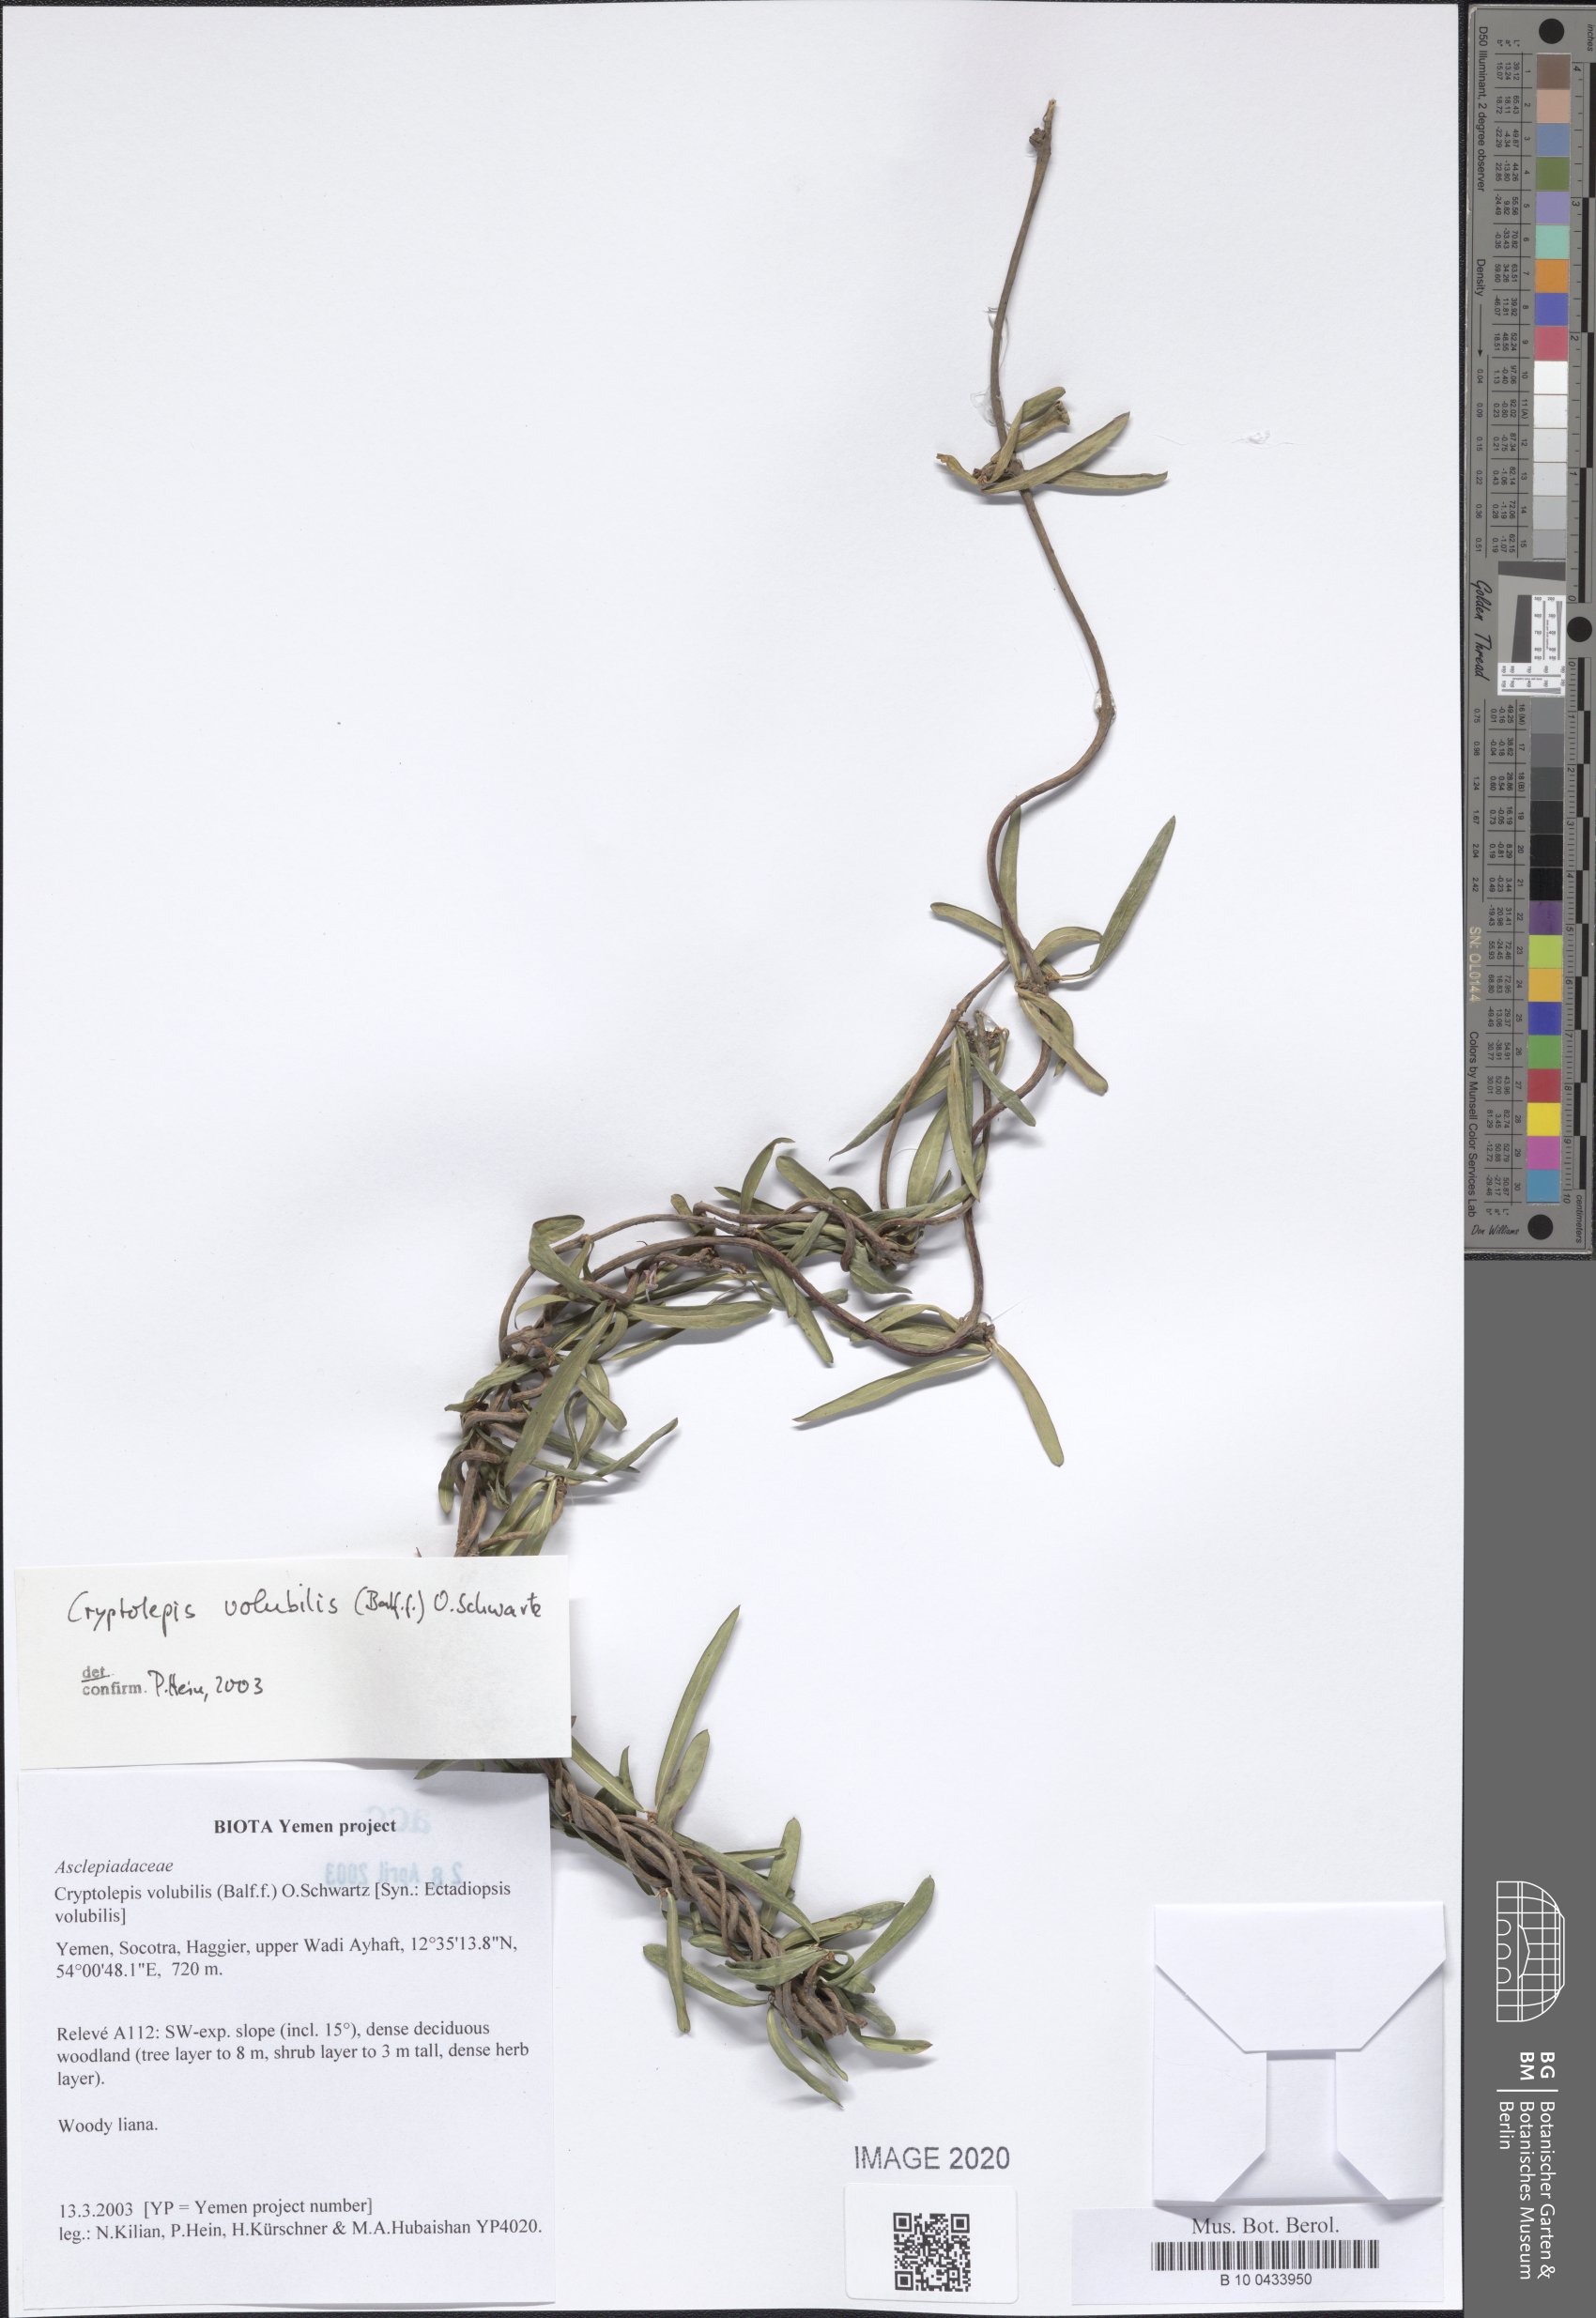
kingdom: Plantae
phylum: Tracheophyta
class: Magnoliopsida
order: Gentianales
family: Apocynaceae
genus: Cryptolepis
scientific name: Cryptolepis volubilis
